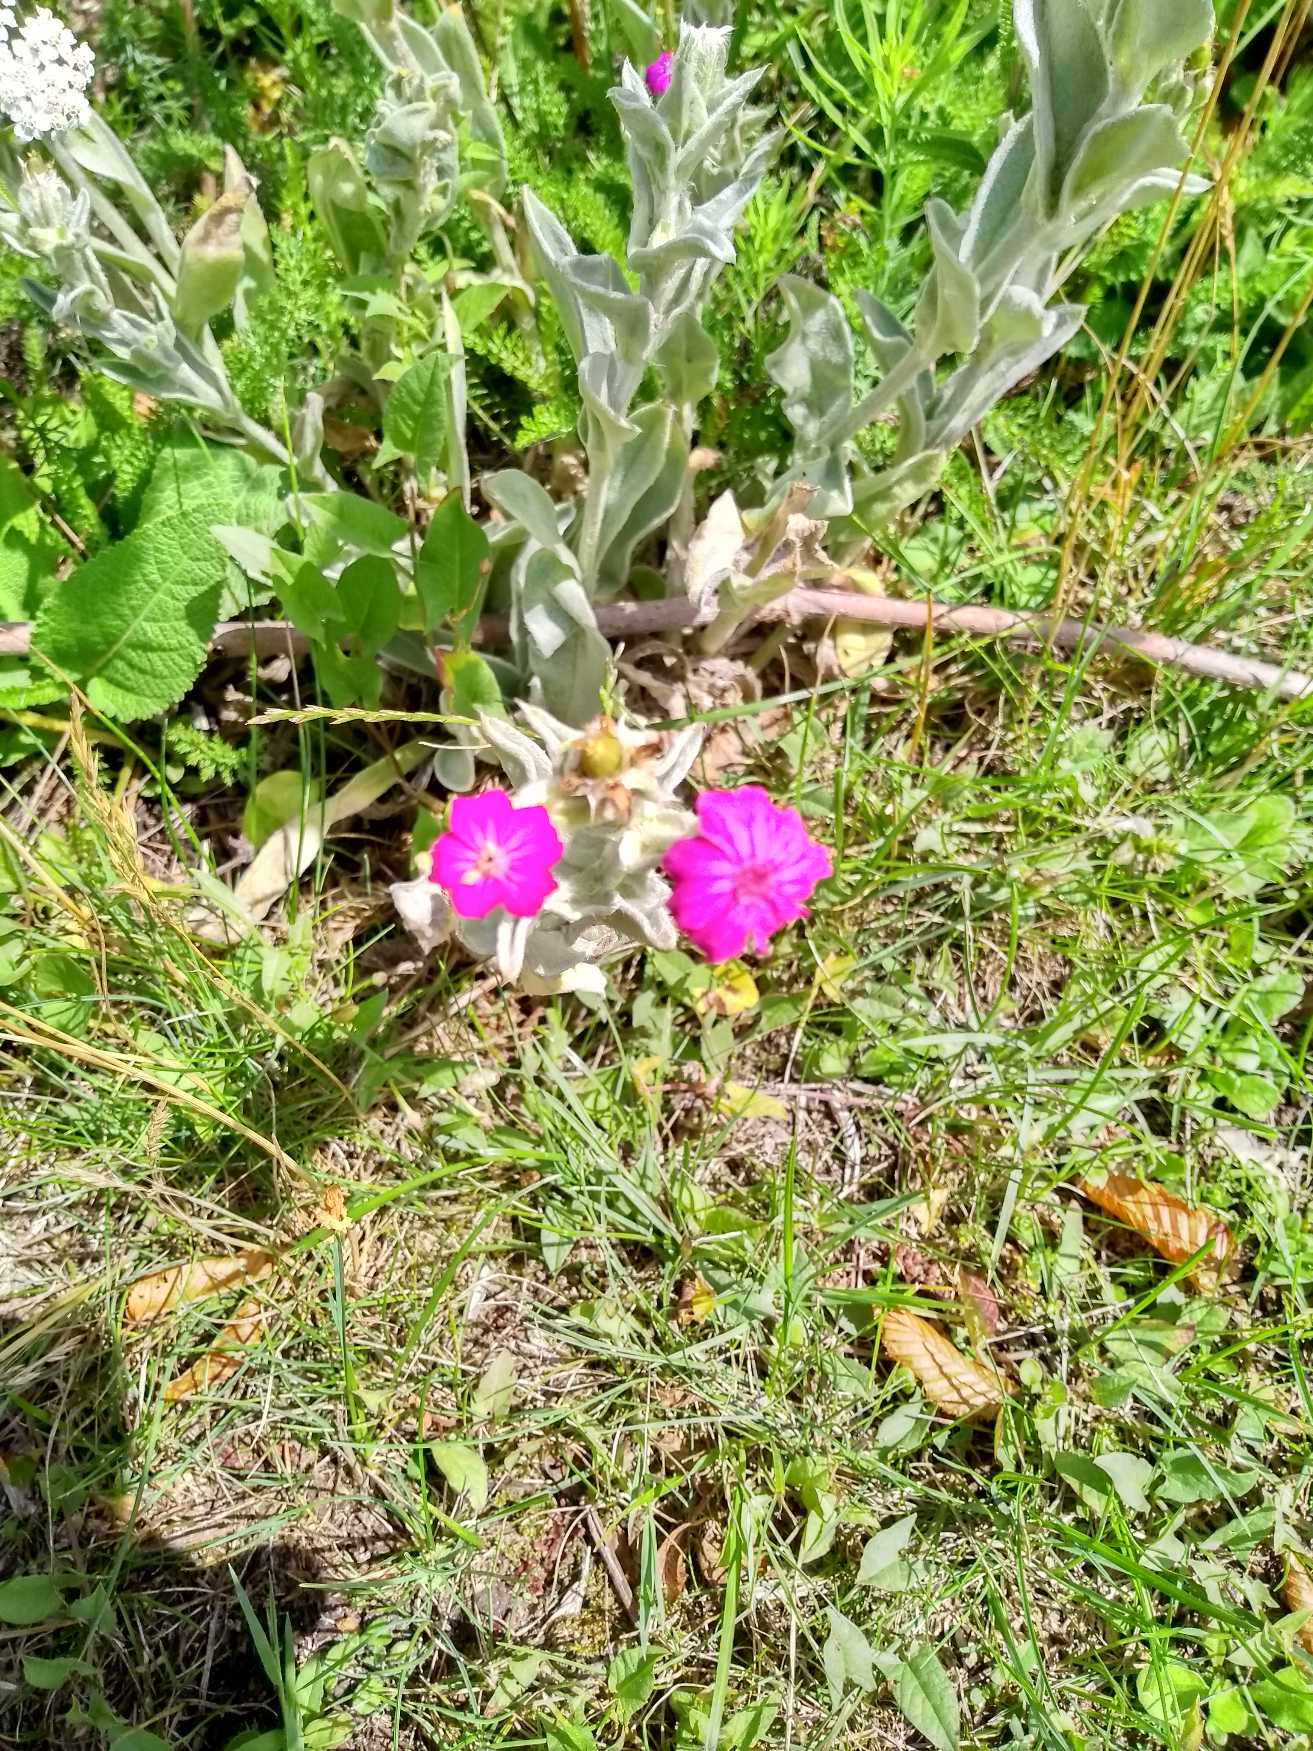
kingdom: Plantae
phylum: Tracheophyta
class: Magnoliopsida
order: Caryophyllales
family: Caryophyllaceae
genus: Silene
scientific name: Silene coronaria
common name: Fiksernellike
